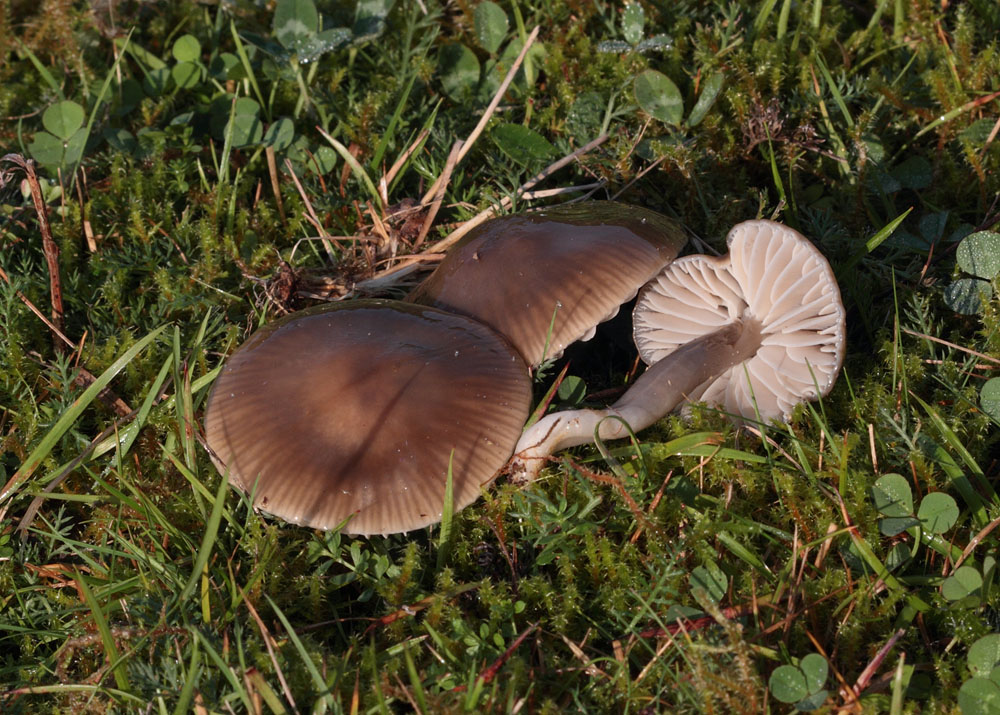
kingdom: Fungi
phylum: Basidiomycota
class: Agaricomycetes
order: Agaricales
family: Hygrophoraceae
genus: Gliophorus
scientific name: Gliophorus irrigatus
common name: slimet vokshat
